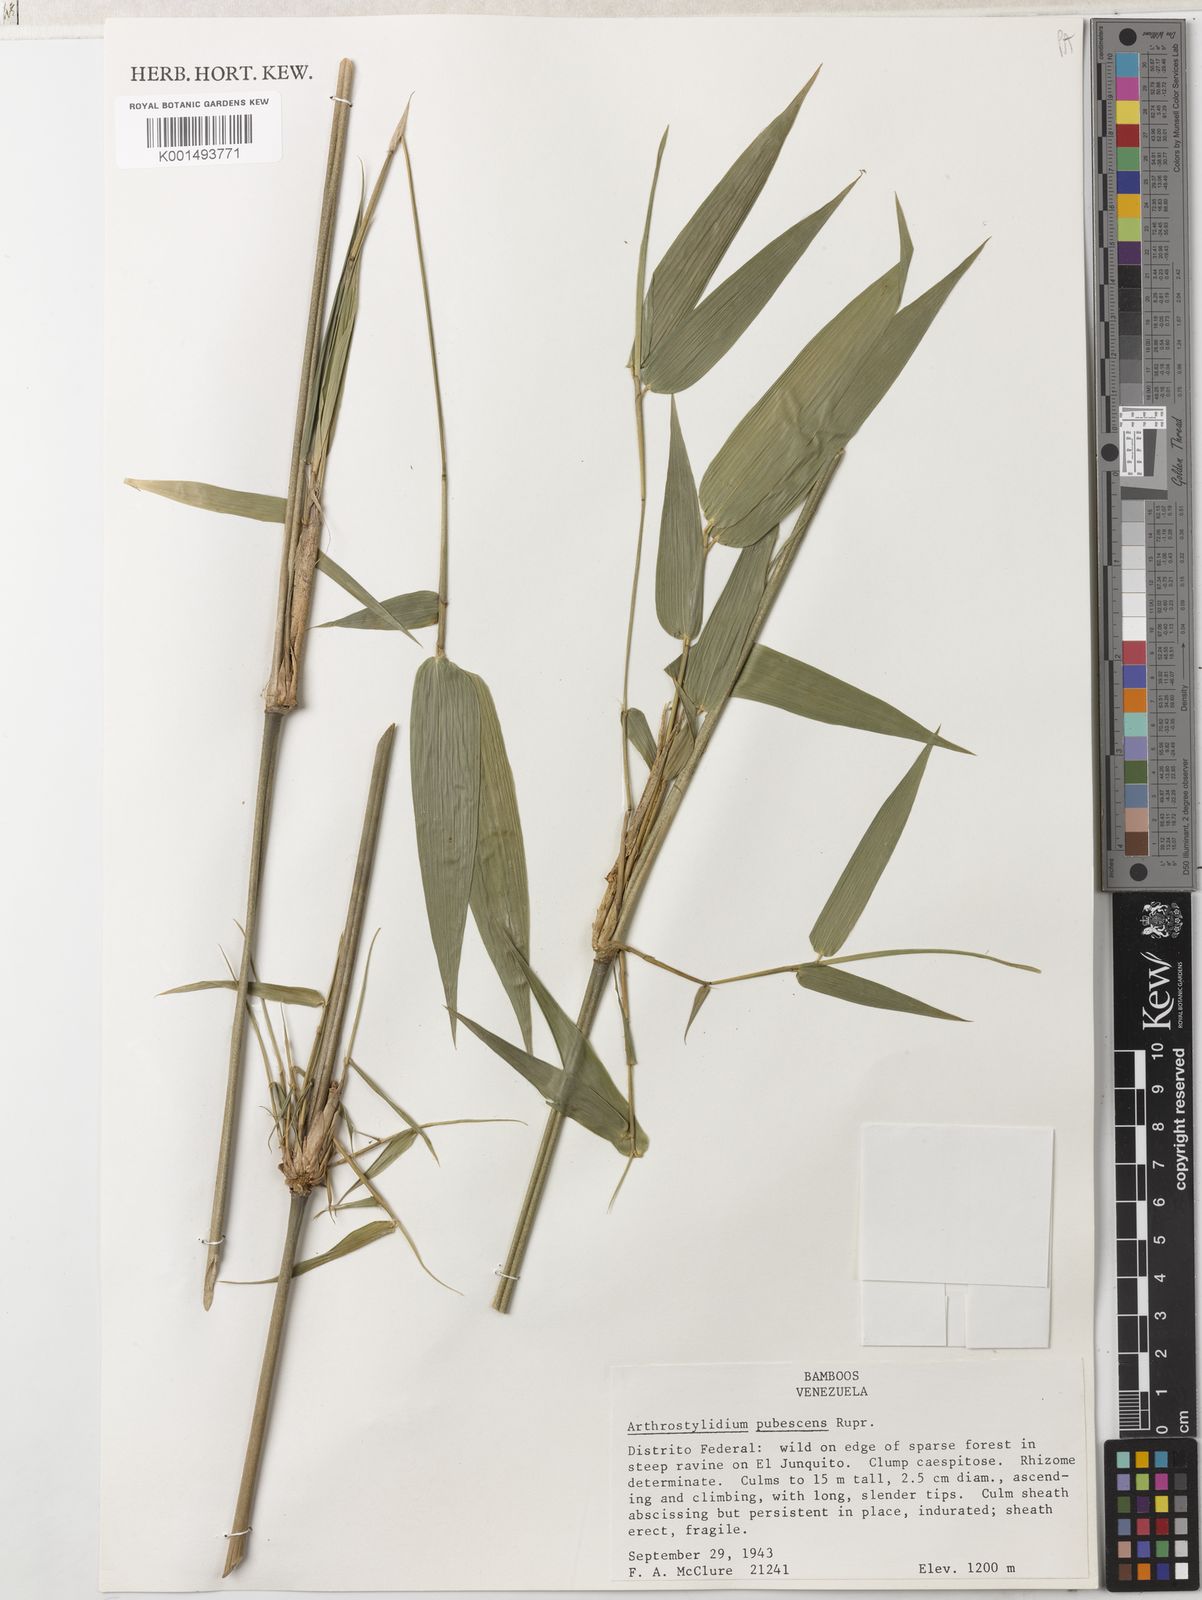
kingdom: Plantae
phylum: Tracheophyta
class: Liliopsida
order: Poales
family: Poaceae
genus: Arthrostylidium
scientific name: Arthrostylidium pubescens
